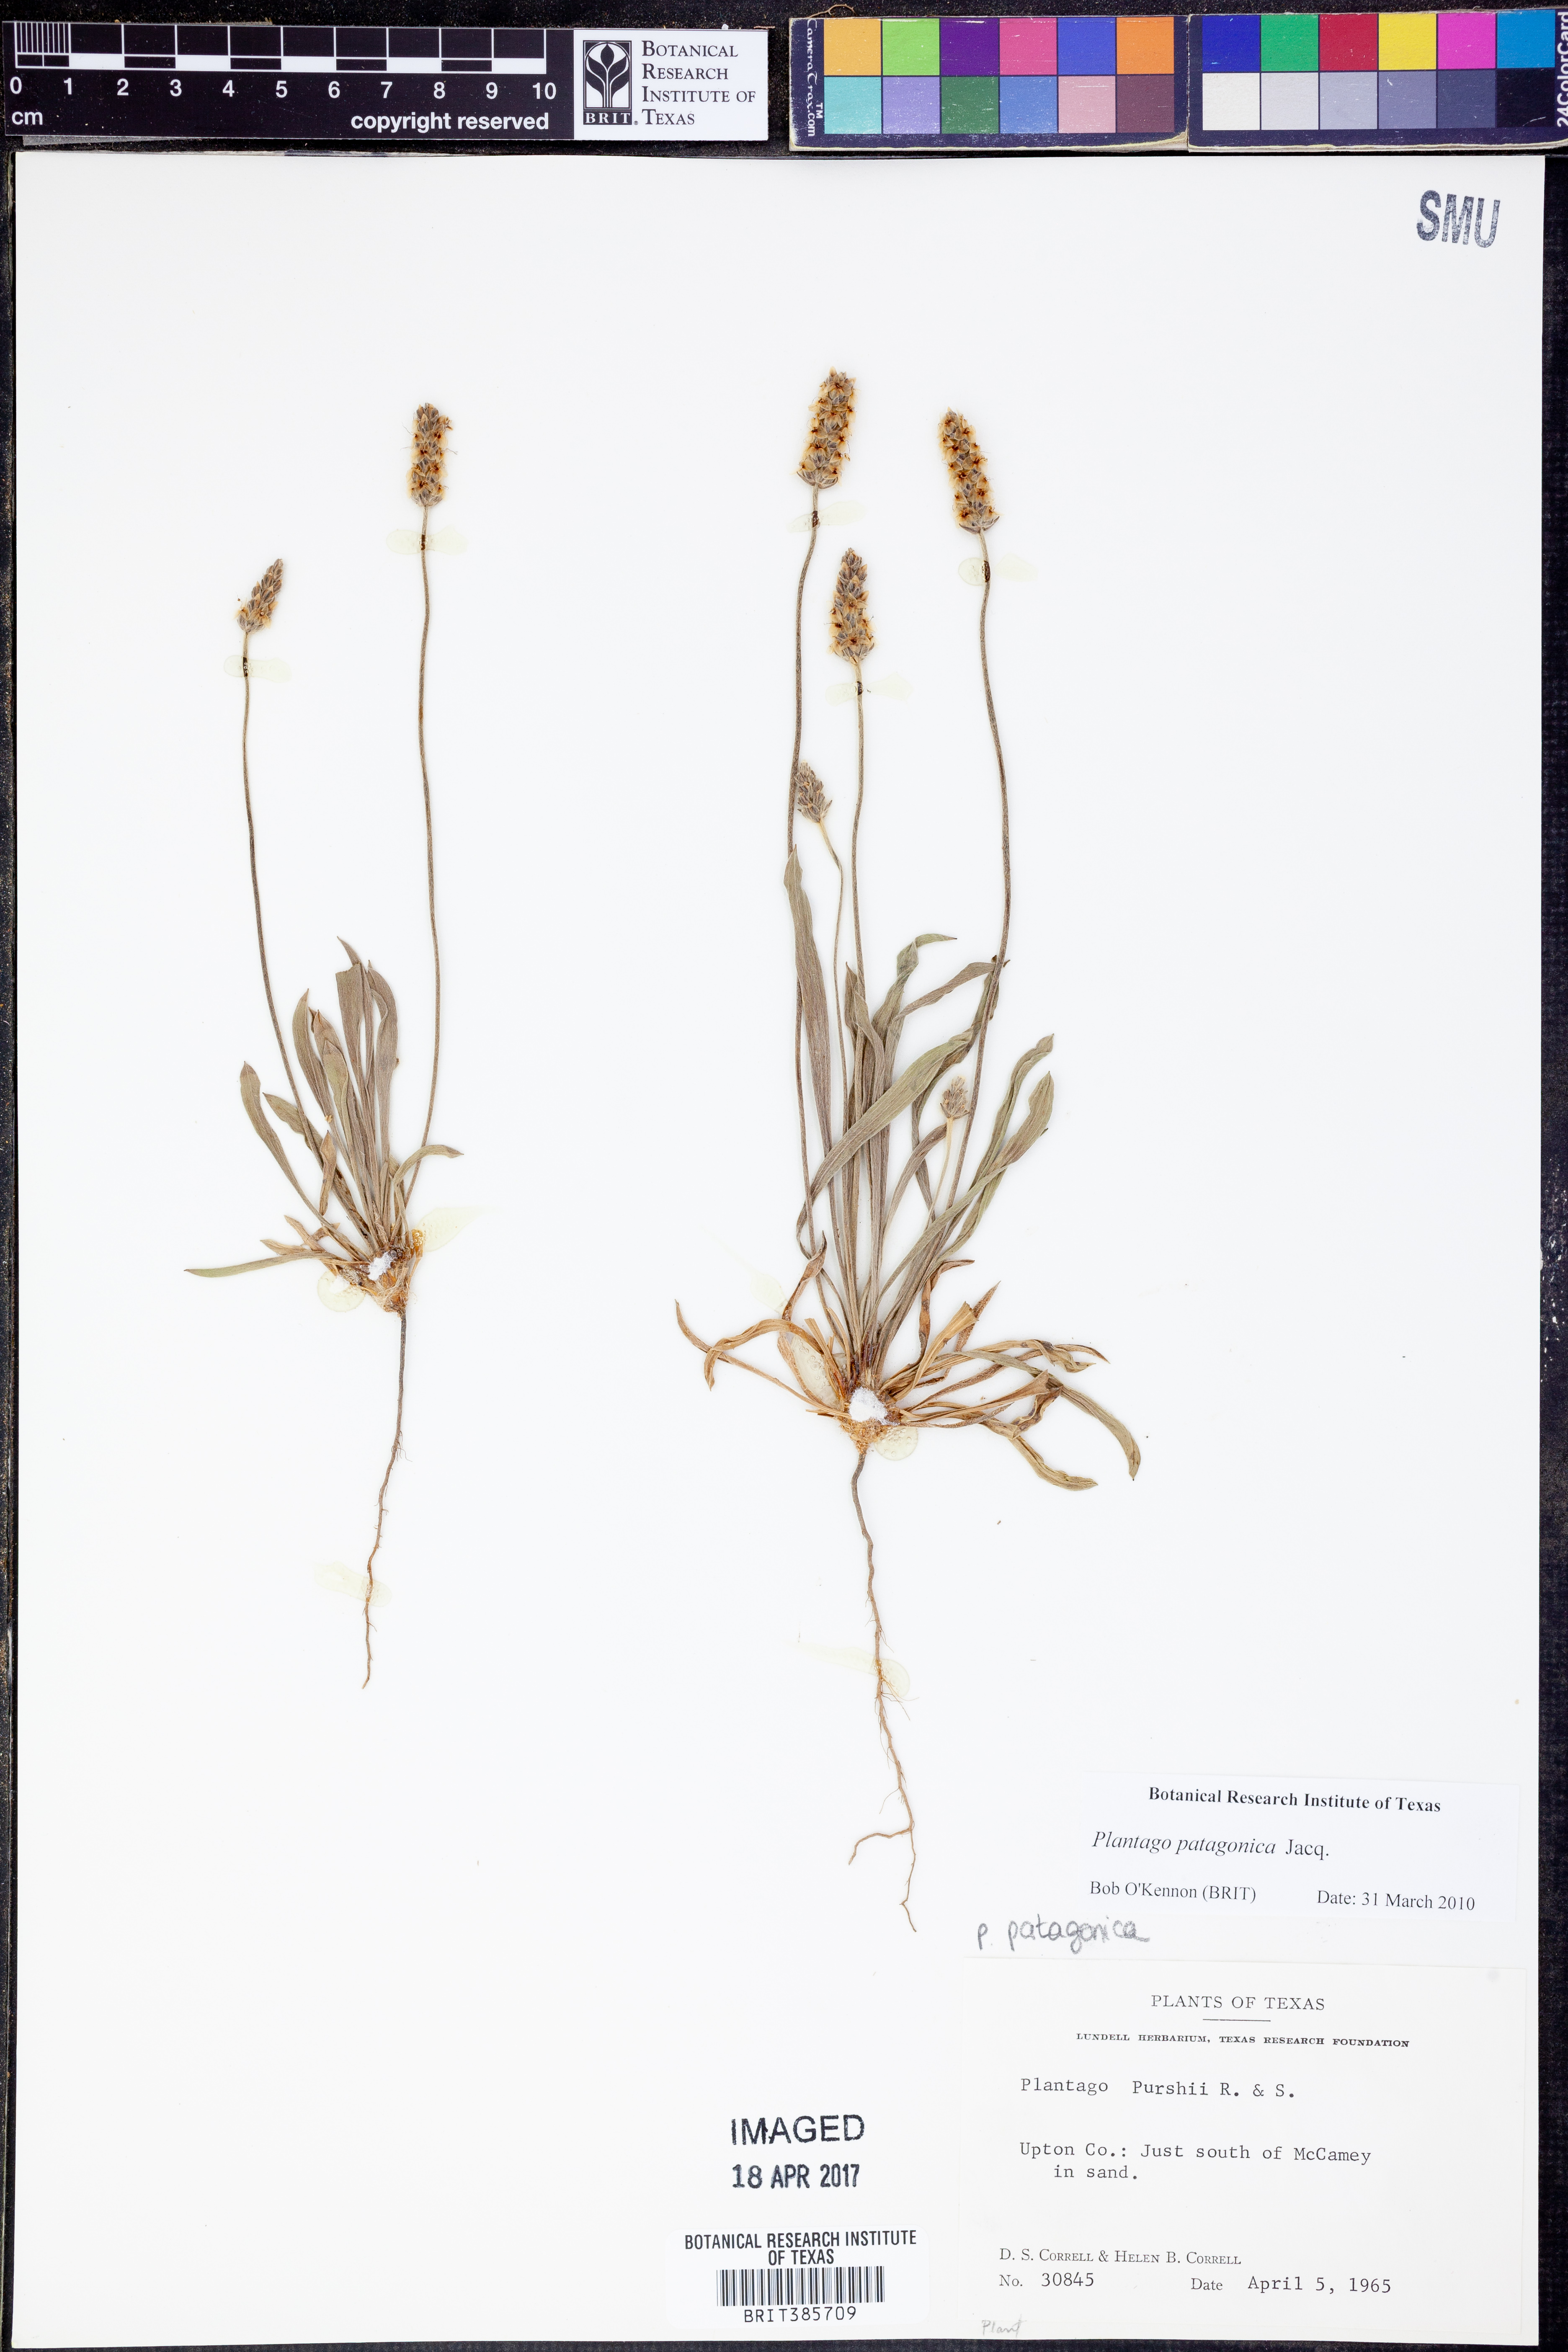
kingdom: Plantae
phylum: Tracheophyta
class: Magnoliopsida
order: Lamiales
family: Plantaginaceae
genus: Plantago
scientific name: Plantago hookeriana
